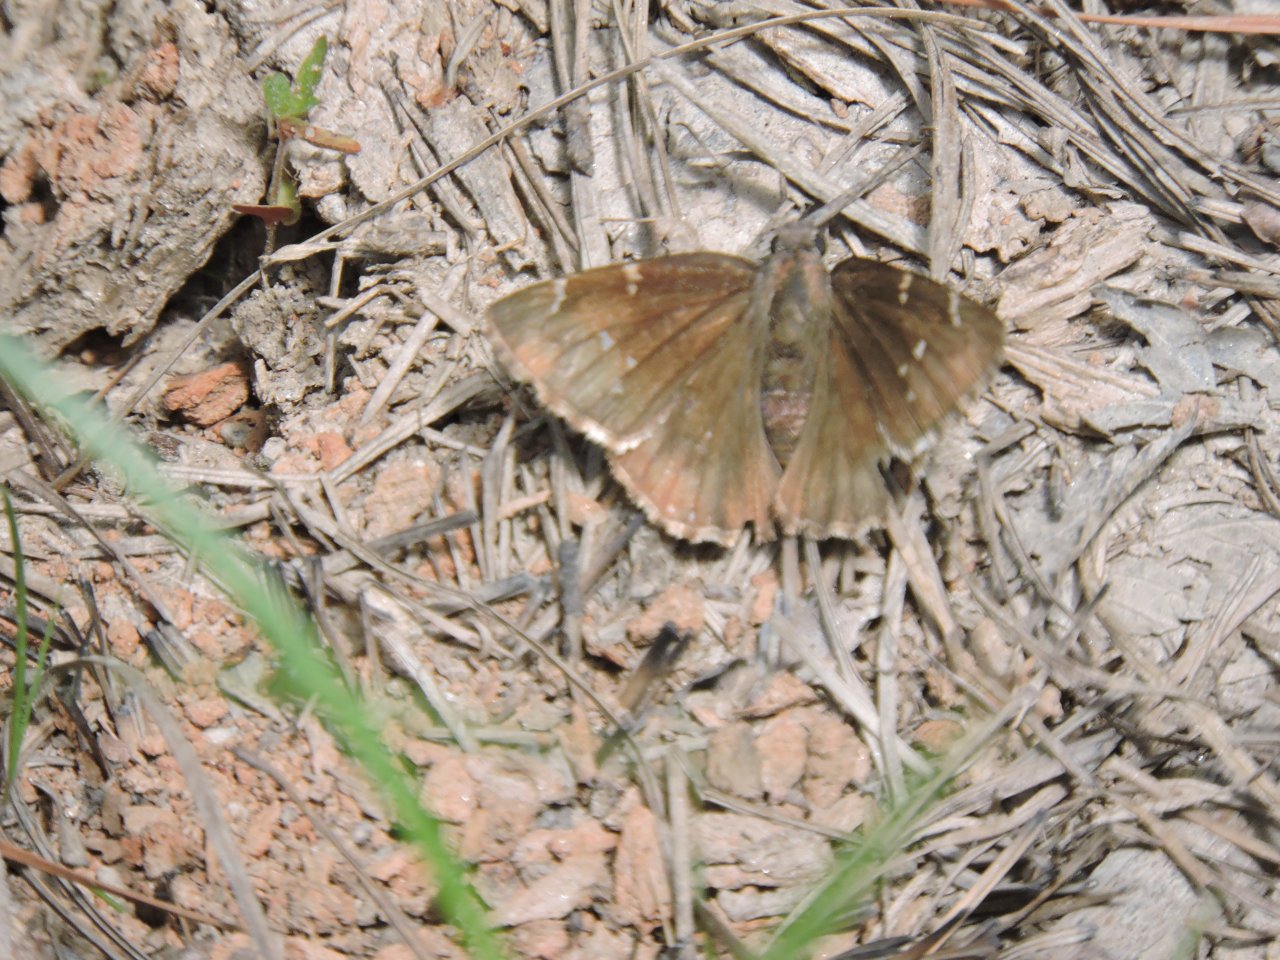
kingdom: Animalia
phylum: Arthropoda
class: Insecta
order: Lepidoptera
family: Hesperiidae
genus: Autochton
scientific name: Autochton
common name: Northern Cloudywing
